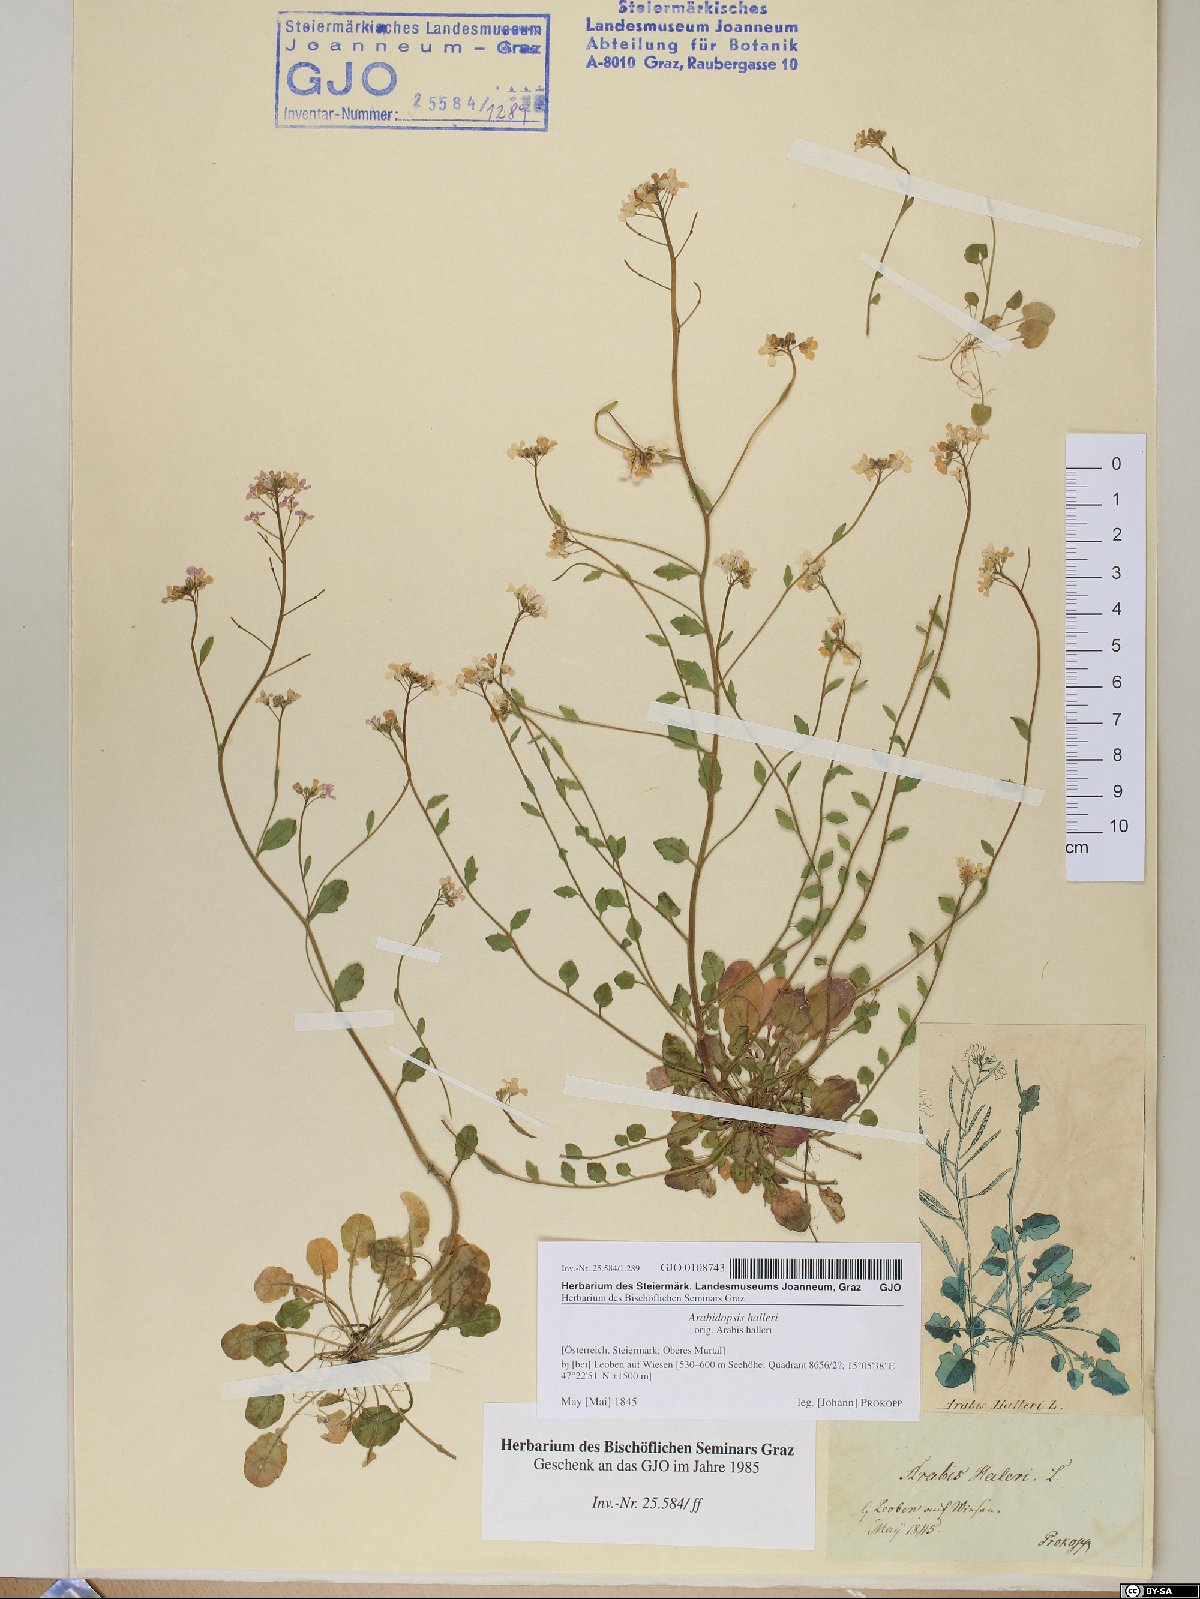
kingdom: Plantae
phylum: Tracheophyta
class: Magnoliopsida
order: Brassicales
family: Brassicaceae
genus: Arabidopsis
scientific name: Arabidopsis halleri
